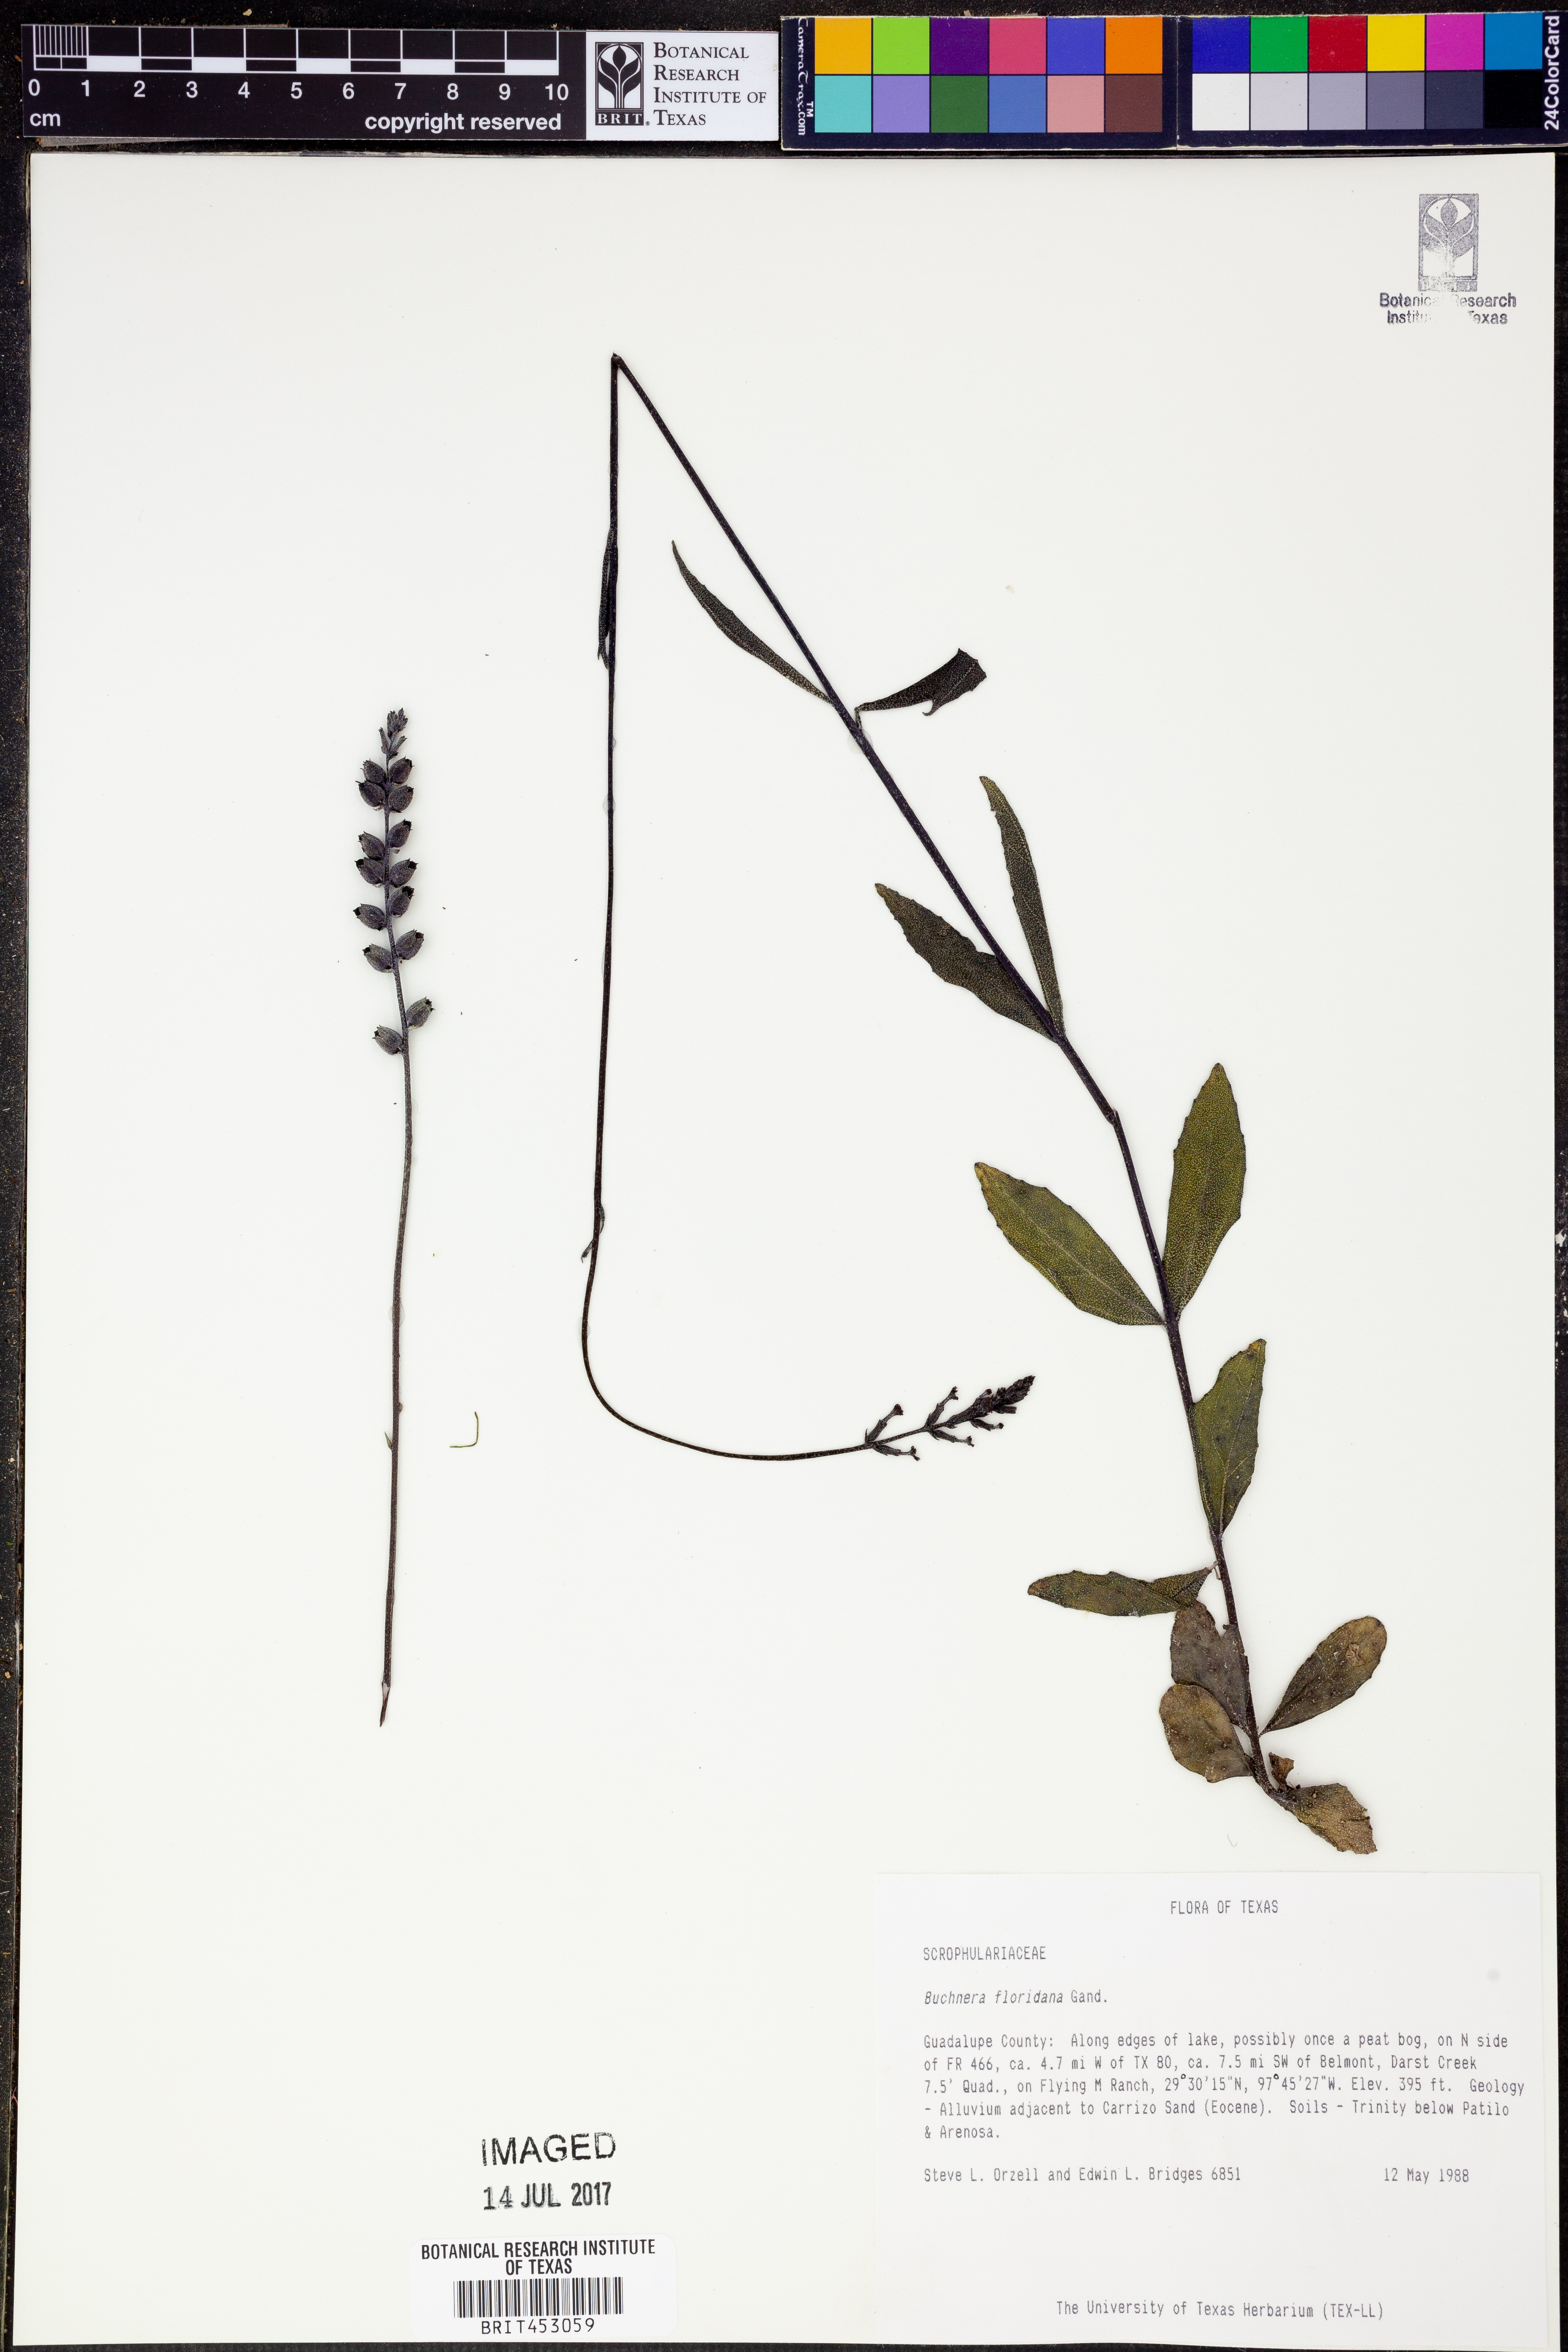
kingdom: Plantae
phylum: Tracheophyta
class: Magnoliopsida
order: Lamiales
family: Orobanchaceae
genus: Buchnera
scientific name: Buchnera floridana
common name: Florida bluehearts
